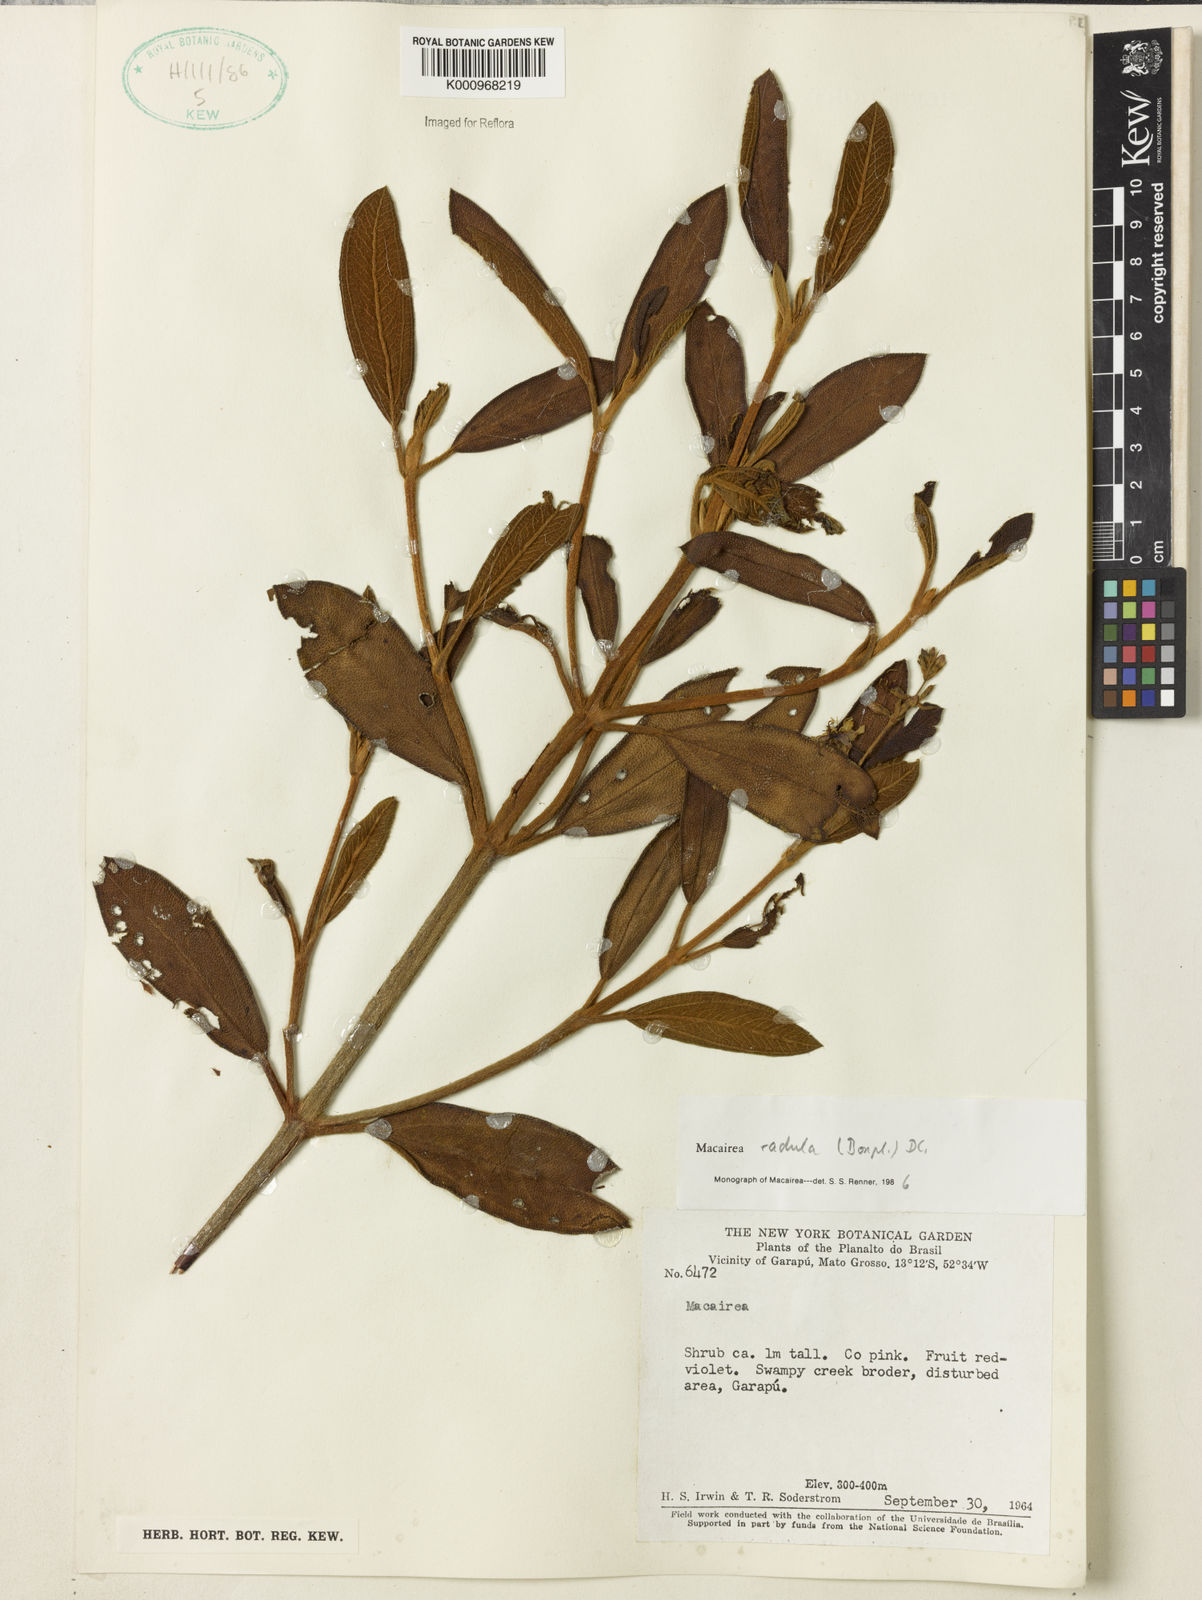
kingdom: Plantae
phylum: Tracheophyta
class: Magnoliopsida
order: Myrtales
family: Melastomataceae
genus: Macairea
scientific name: Macairea radula
